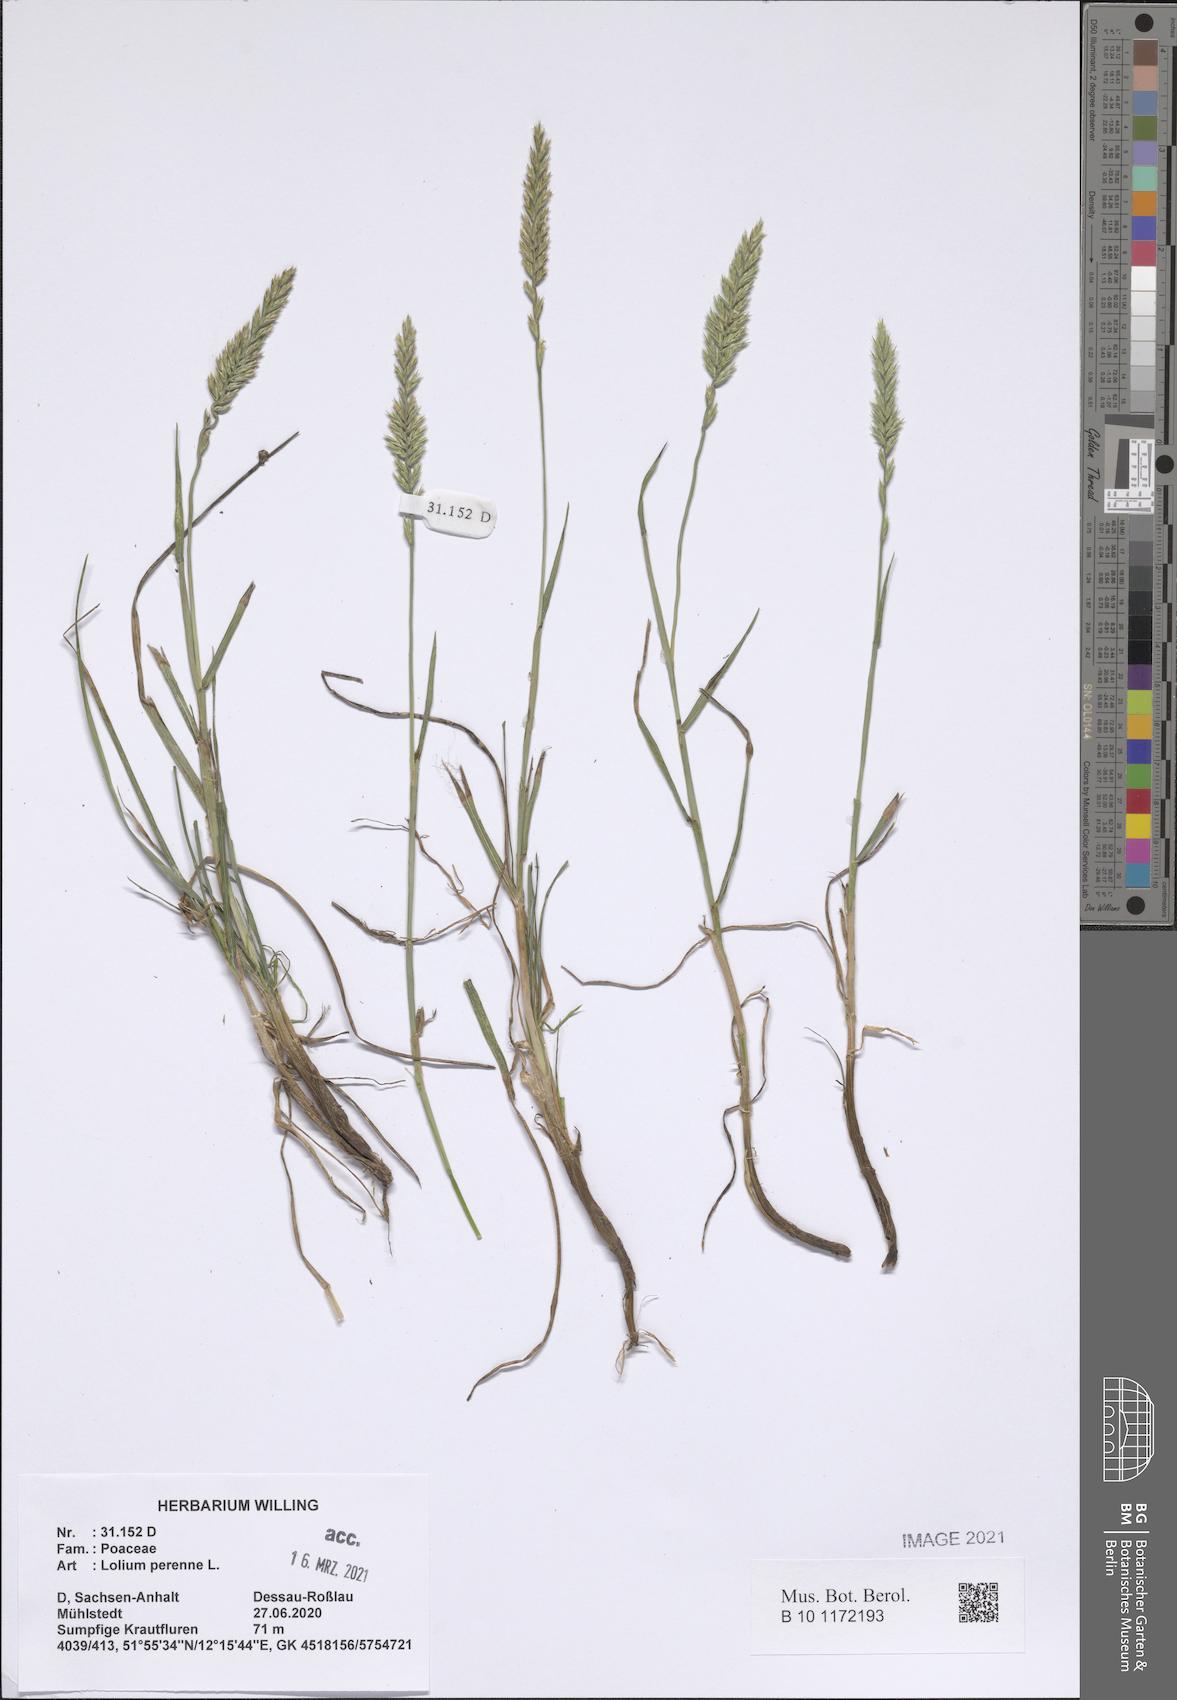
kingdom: Plantae
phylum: Tracheophyta
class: Liliopsida
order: Poales
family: Poaceae
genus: Lolium
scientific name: Lolium perenne
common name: Perennial ryegrass
